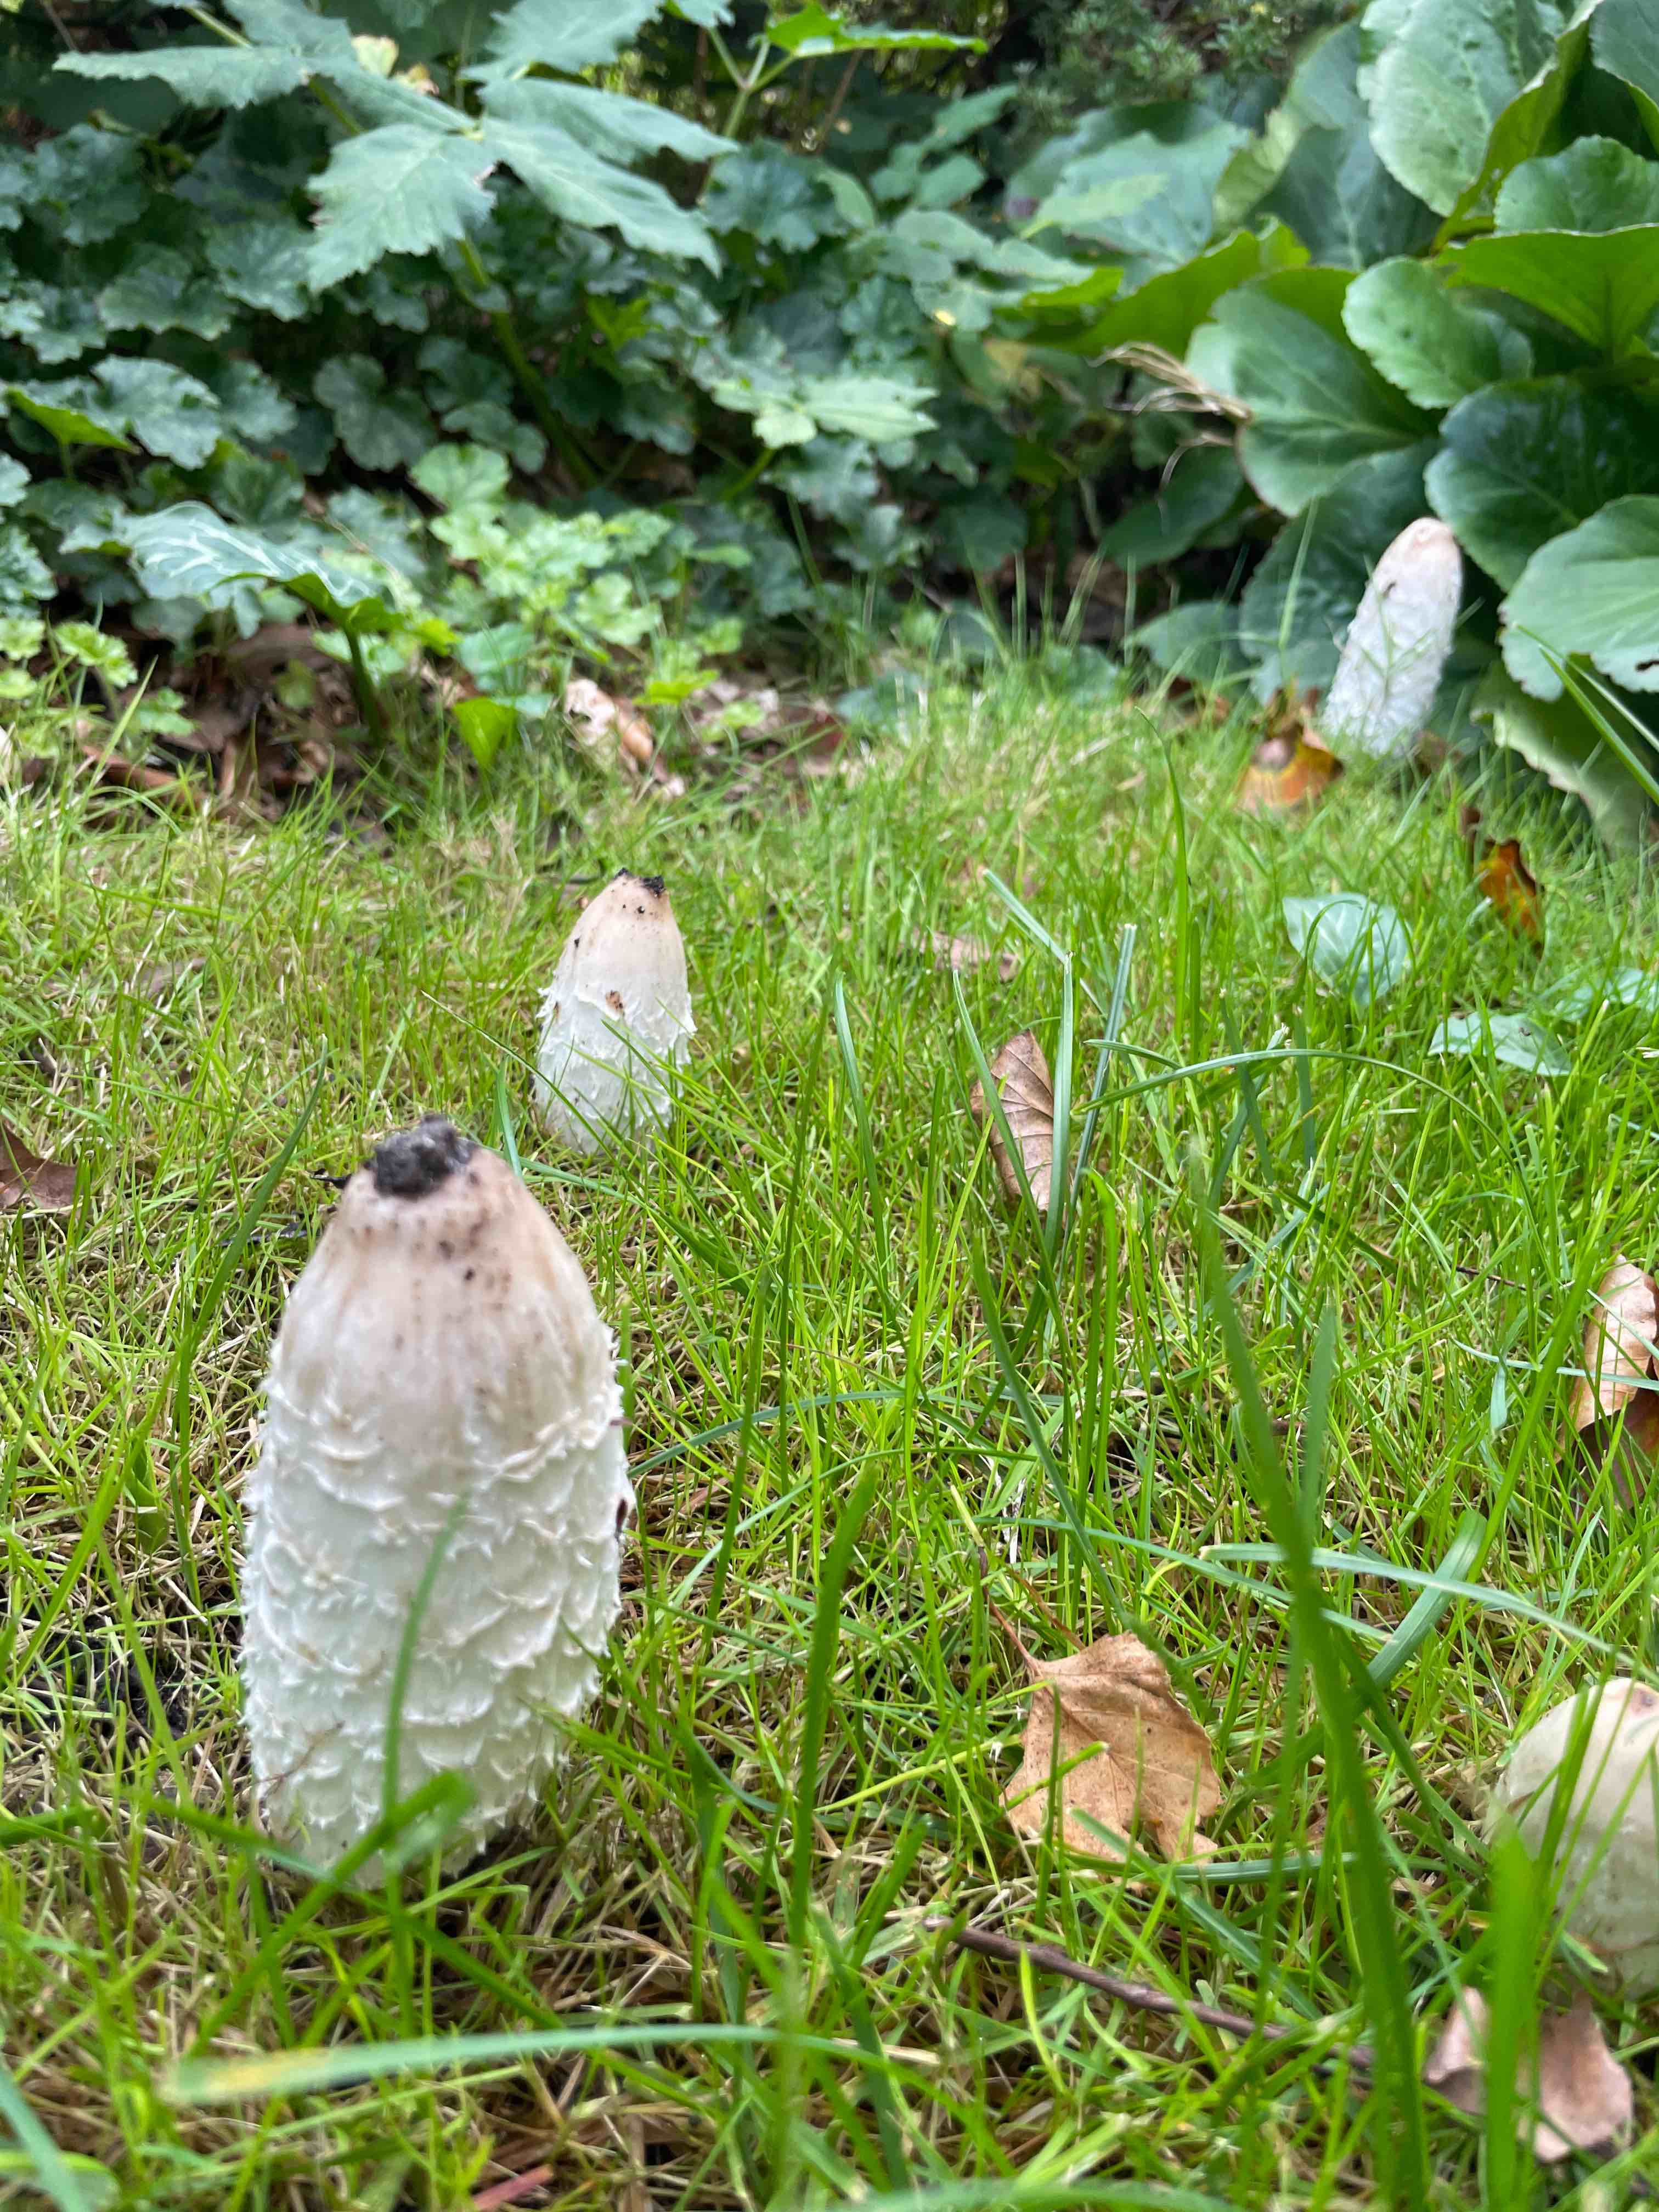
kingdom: Fungi
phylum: Basidiomycota
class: Agaricomycetes
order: Agaricales
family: Agaricaceae
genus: Coprinus
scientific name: Coprinus comatus
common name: stor parykhat
